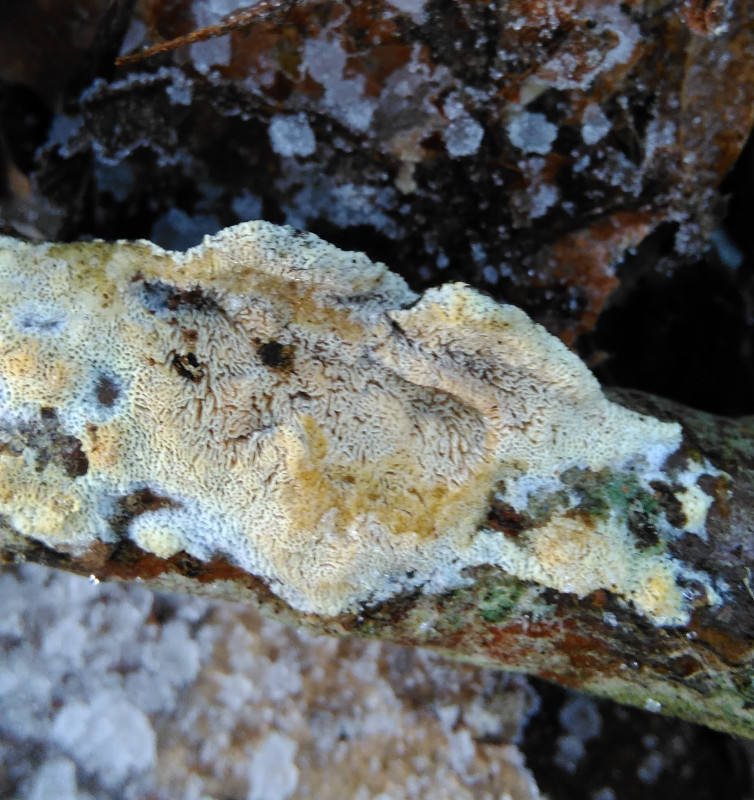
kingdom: Fungi
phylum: Basidiomycota
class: Agaricomycetes
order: Hymenochaetales
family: Schizoporaceae
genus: Xylodon
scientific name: Xylodon subtropicus
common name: labyrint-tandsvamp
